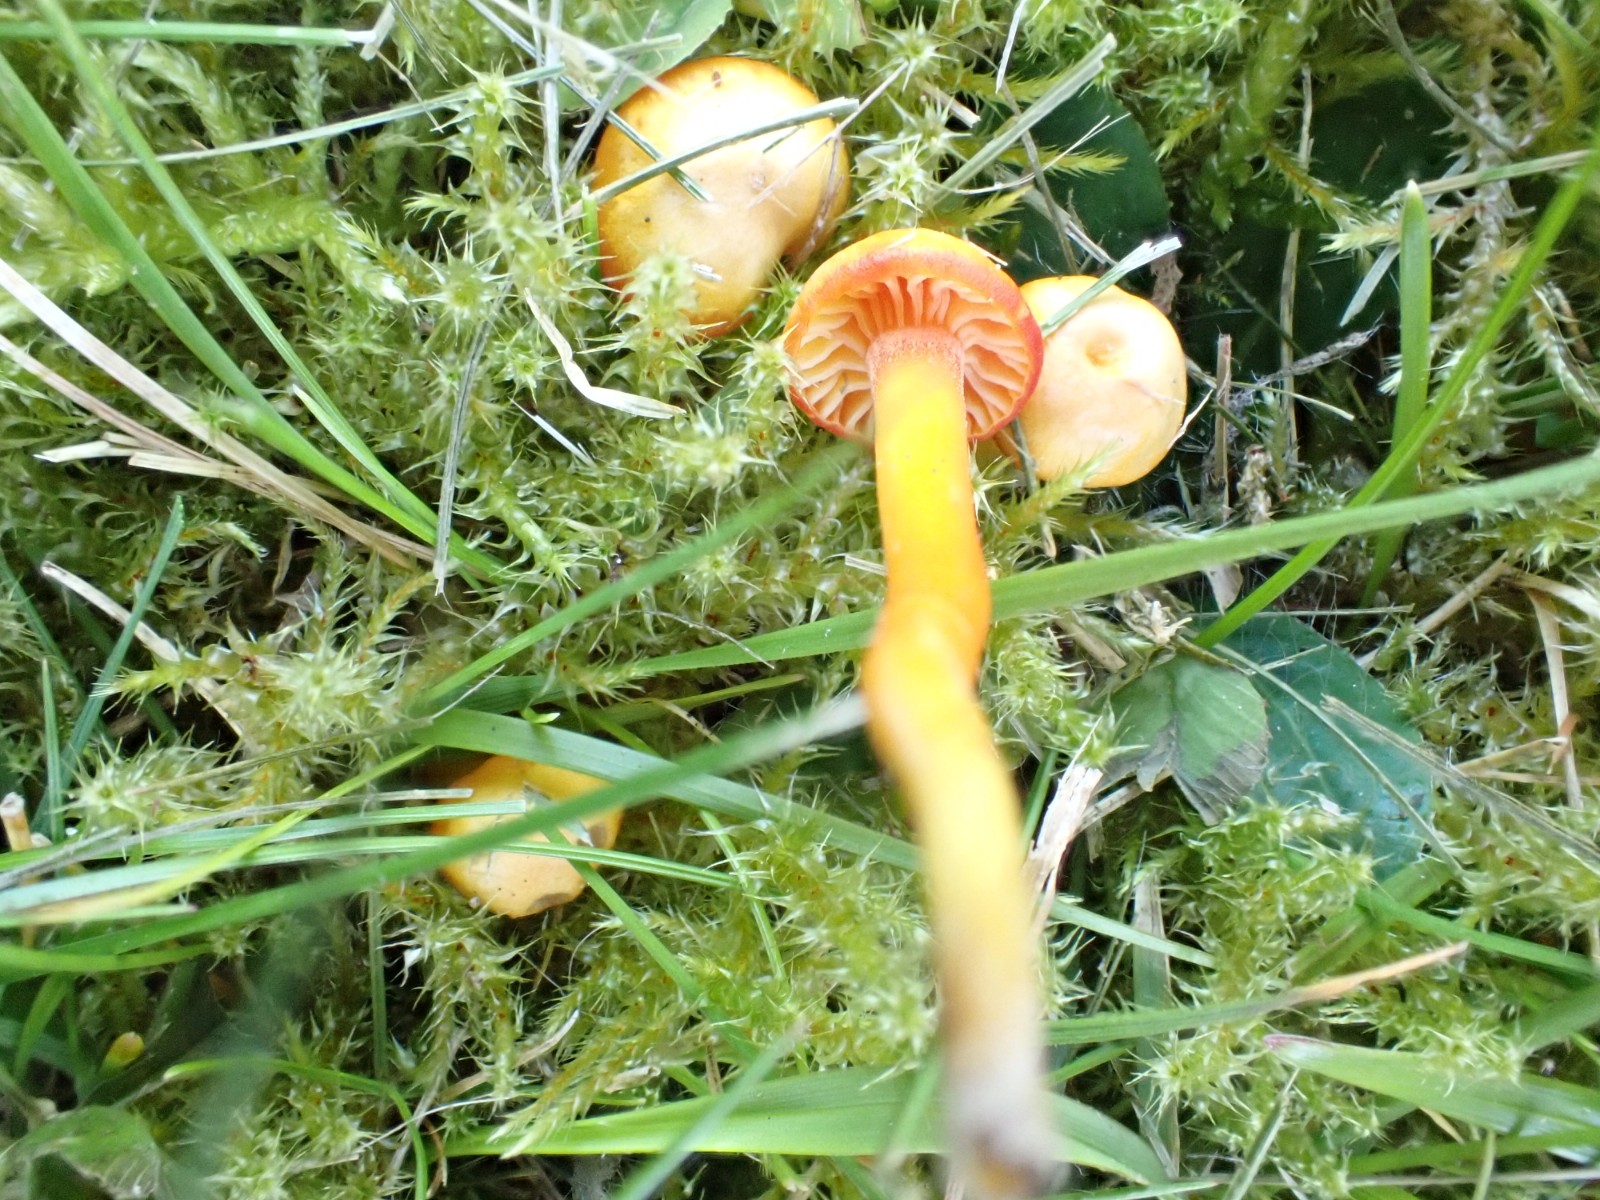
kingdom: Fungi
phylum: Basidiomycota
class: Agaricomycetes
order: Agaricales
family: Hygrophoraceae
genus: Hygrocybe
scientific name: Hygrocybe insipida
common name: liden vokshat
